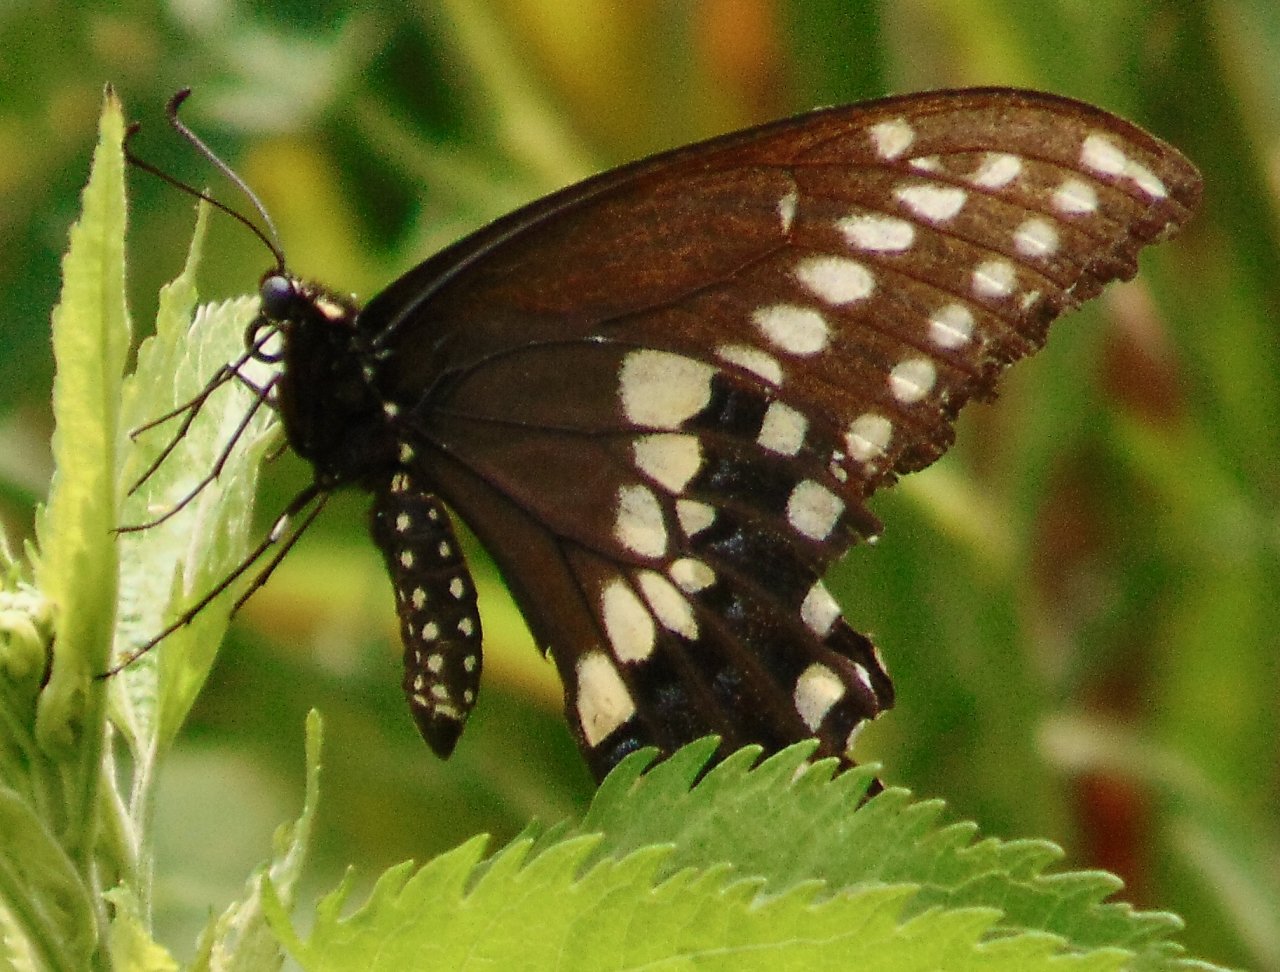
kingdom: Animalia
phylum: Arthropoda
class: Insecta
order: Lepidoptera
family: Papilionidae
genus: Papilio
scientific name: Papilio polyxenes
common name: Black Swallowtail
